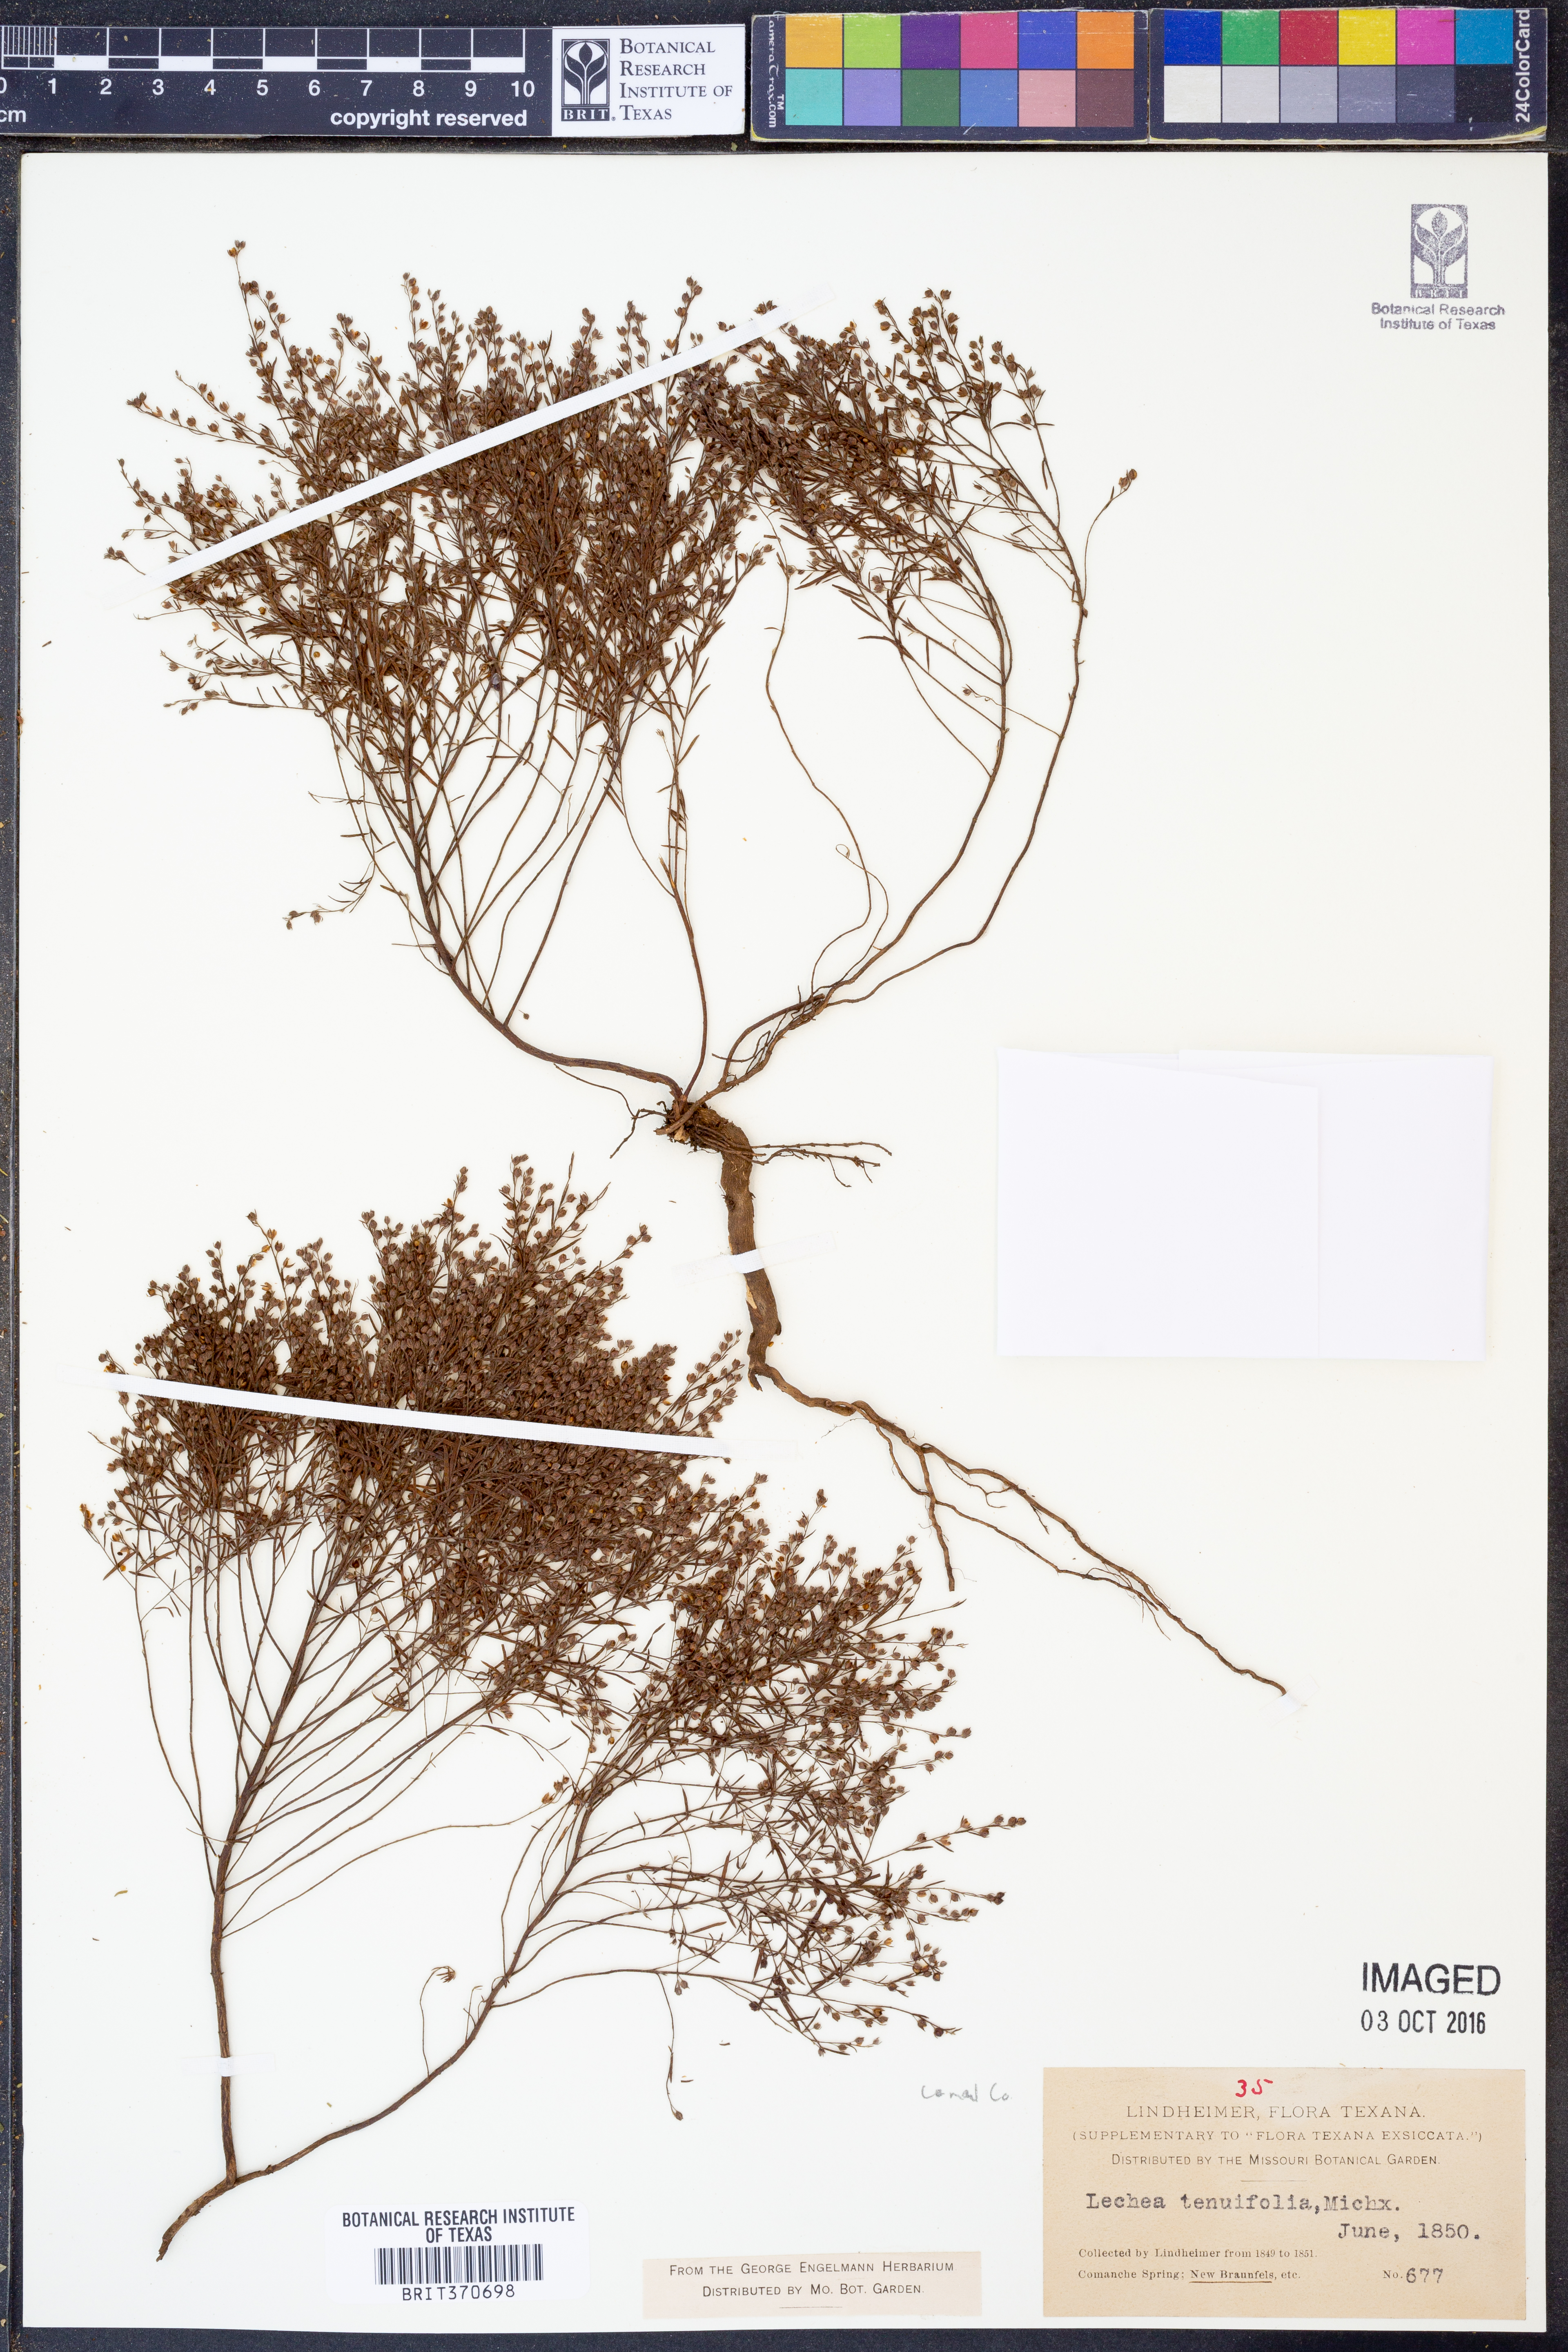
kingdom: Plantae
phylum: Tracheophyta
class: Magnoliopsida
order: Malvales
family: Cistaceae
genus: Lechea
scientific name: Lechea tenuifolia
